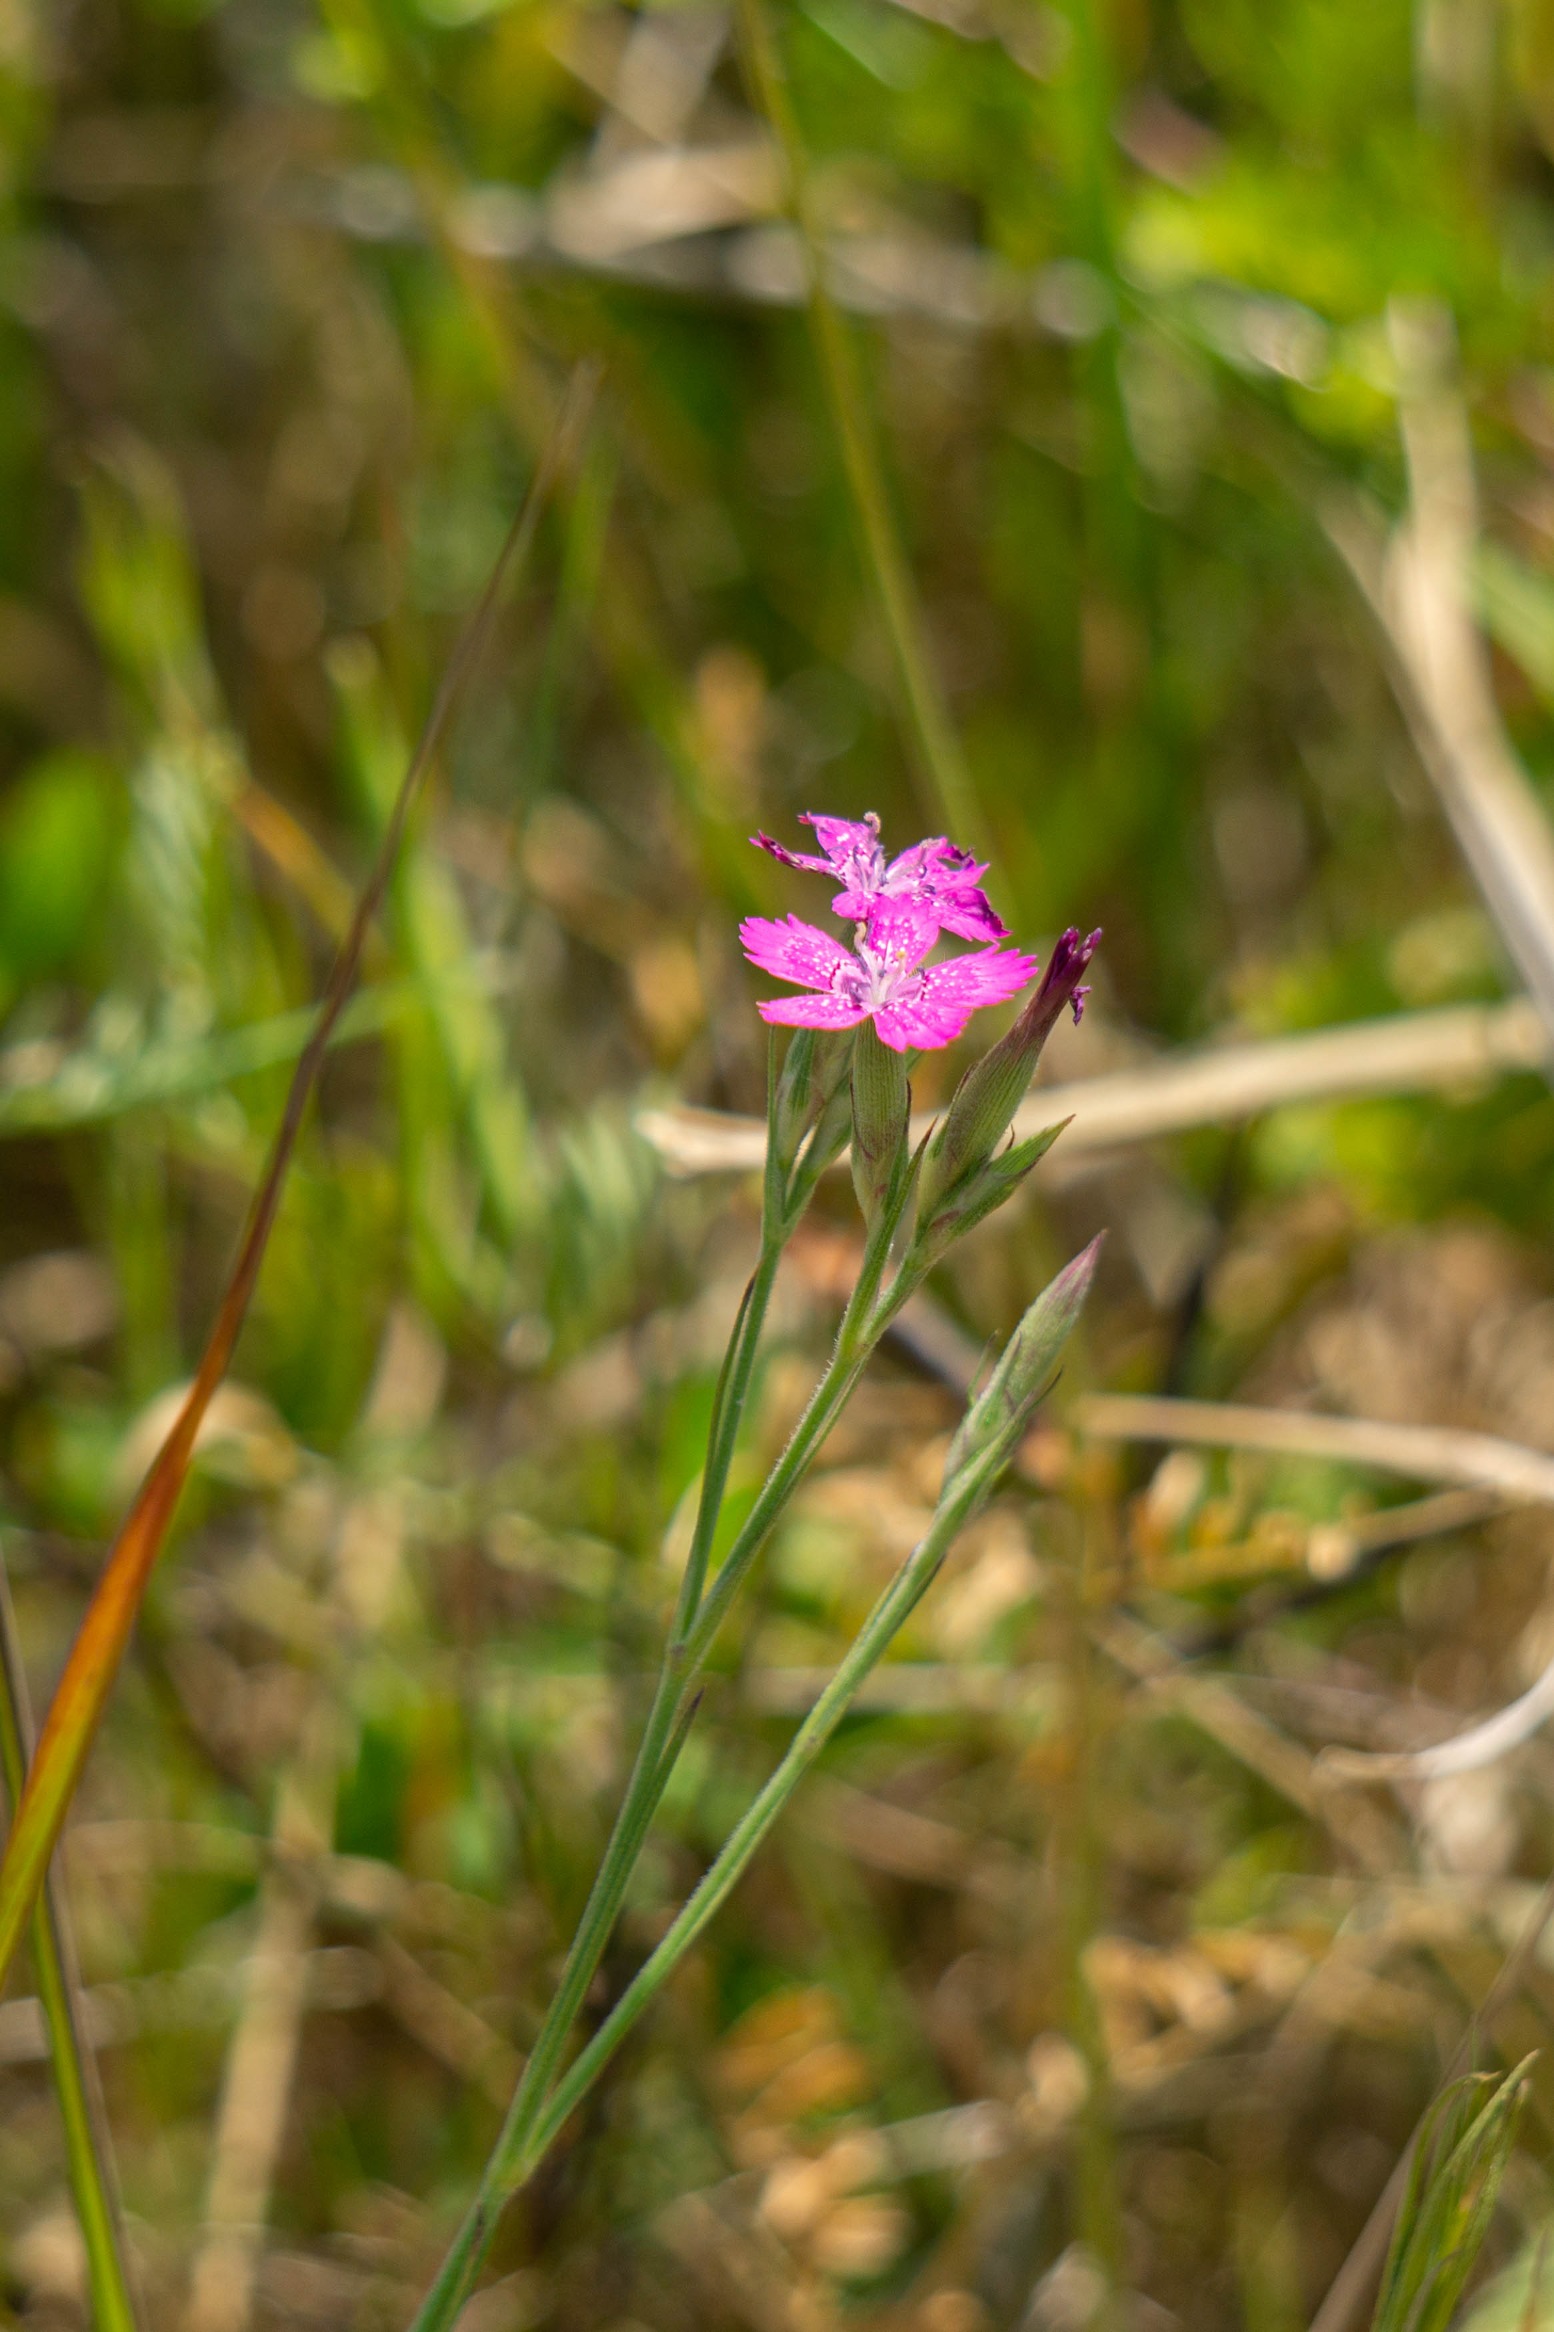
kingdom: Plantae
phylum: Tracheophyta
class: Magnoliopsida
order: Caryophyllales
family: Caryophyllaceae
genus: Dianthus
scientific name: Dianthus deltoides
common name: Bakke-nellike
